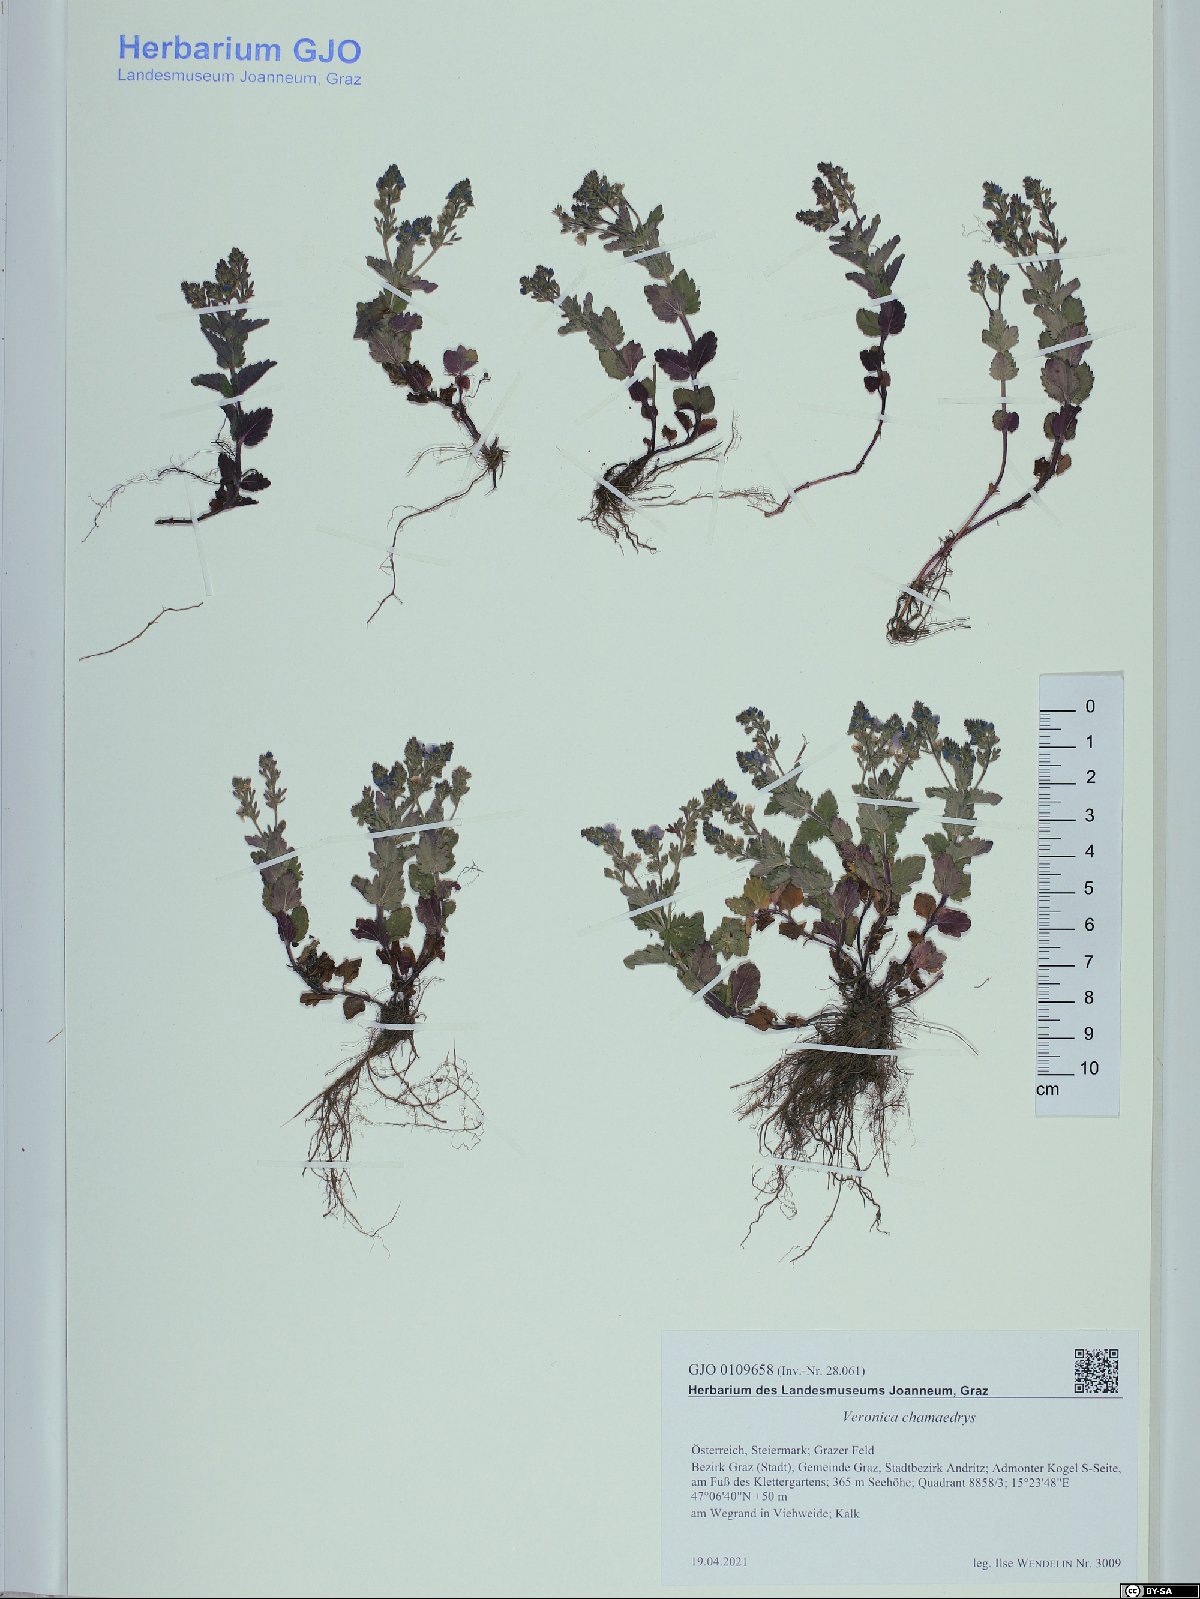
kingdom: Plantae
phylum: Tracheophyta
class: Magnoliopsida
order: Lamiales
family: Plantaginaceae
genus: Veronica
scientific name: Veronica chamaedrys
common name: Germander speedwell
